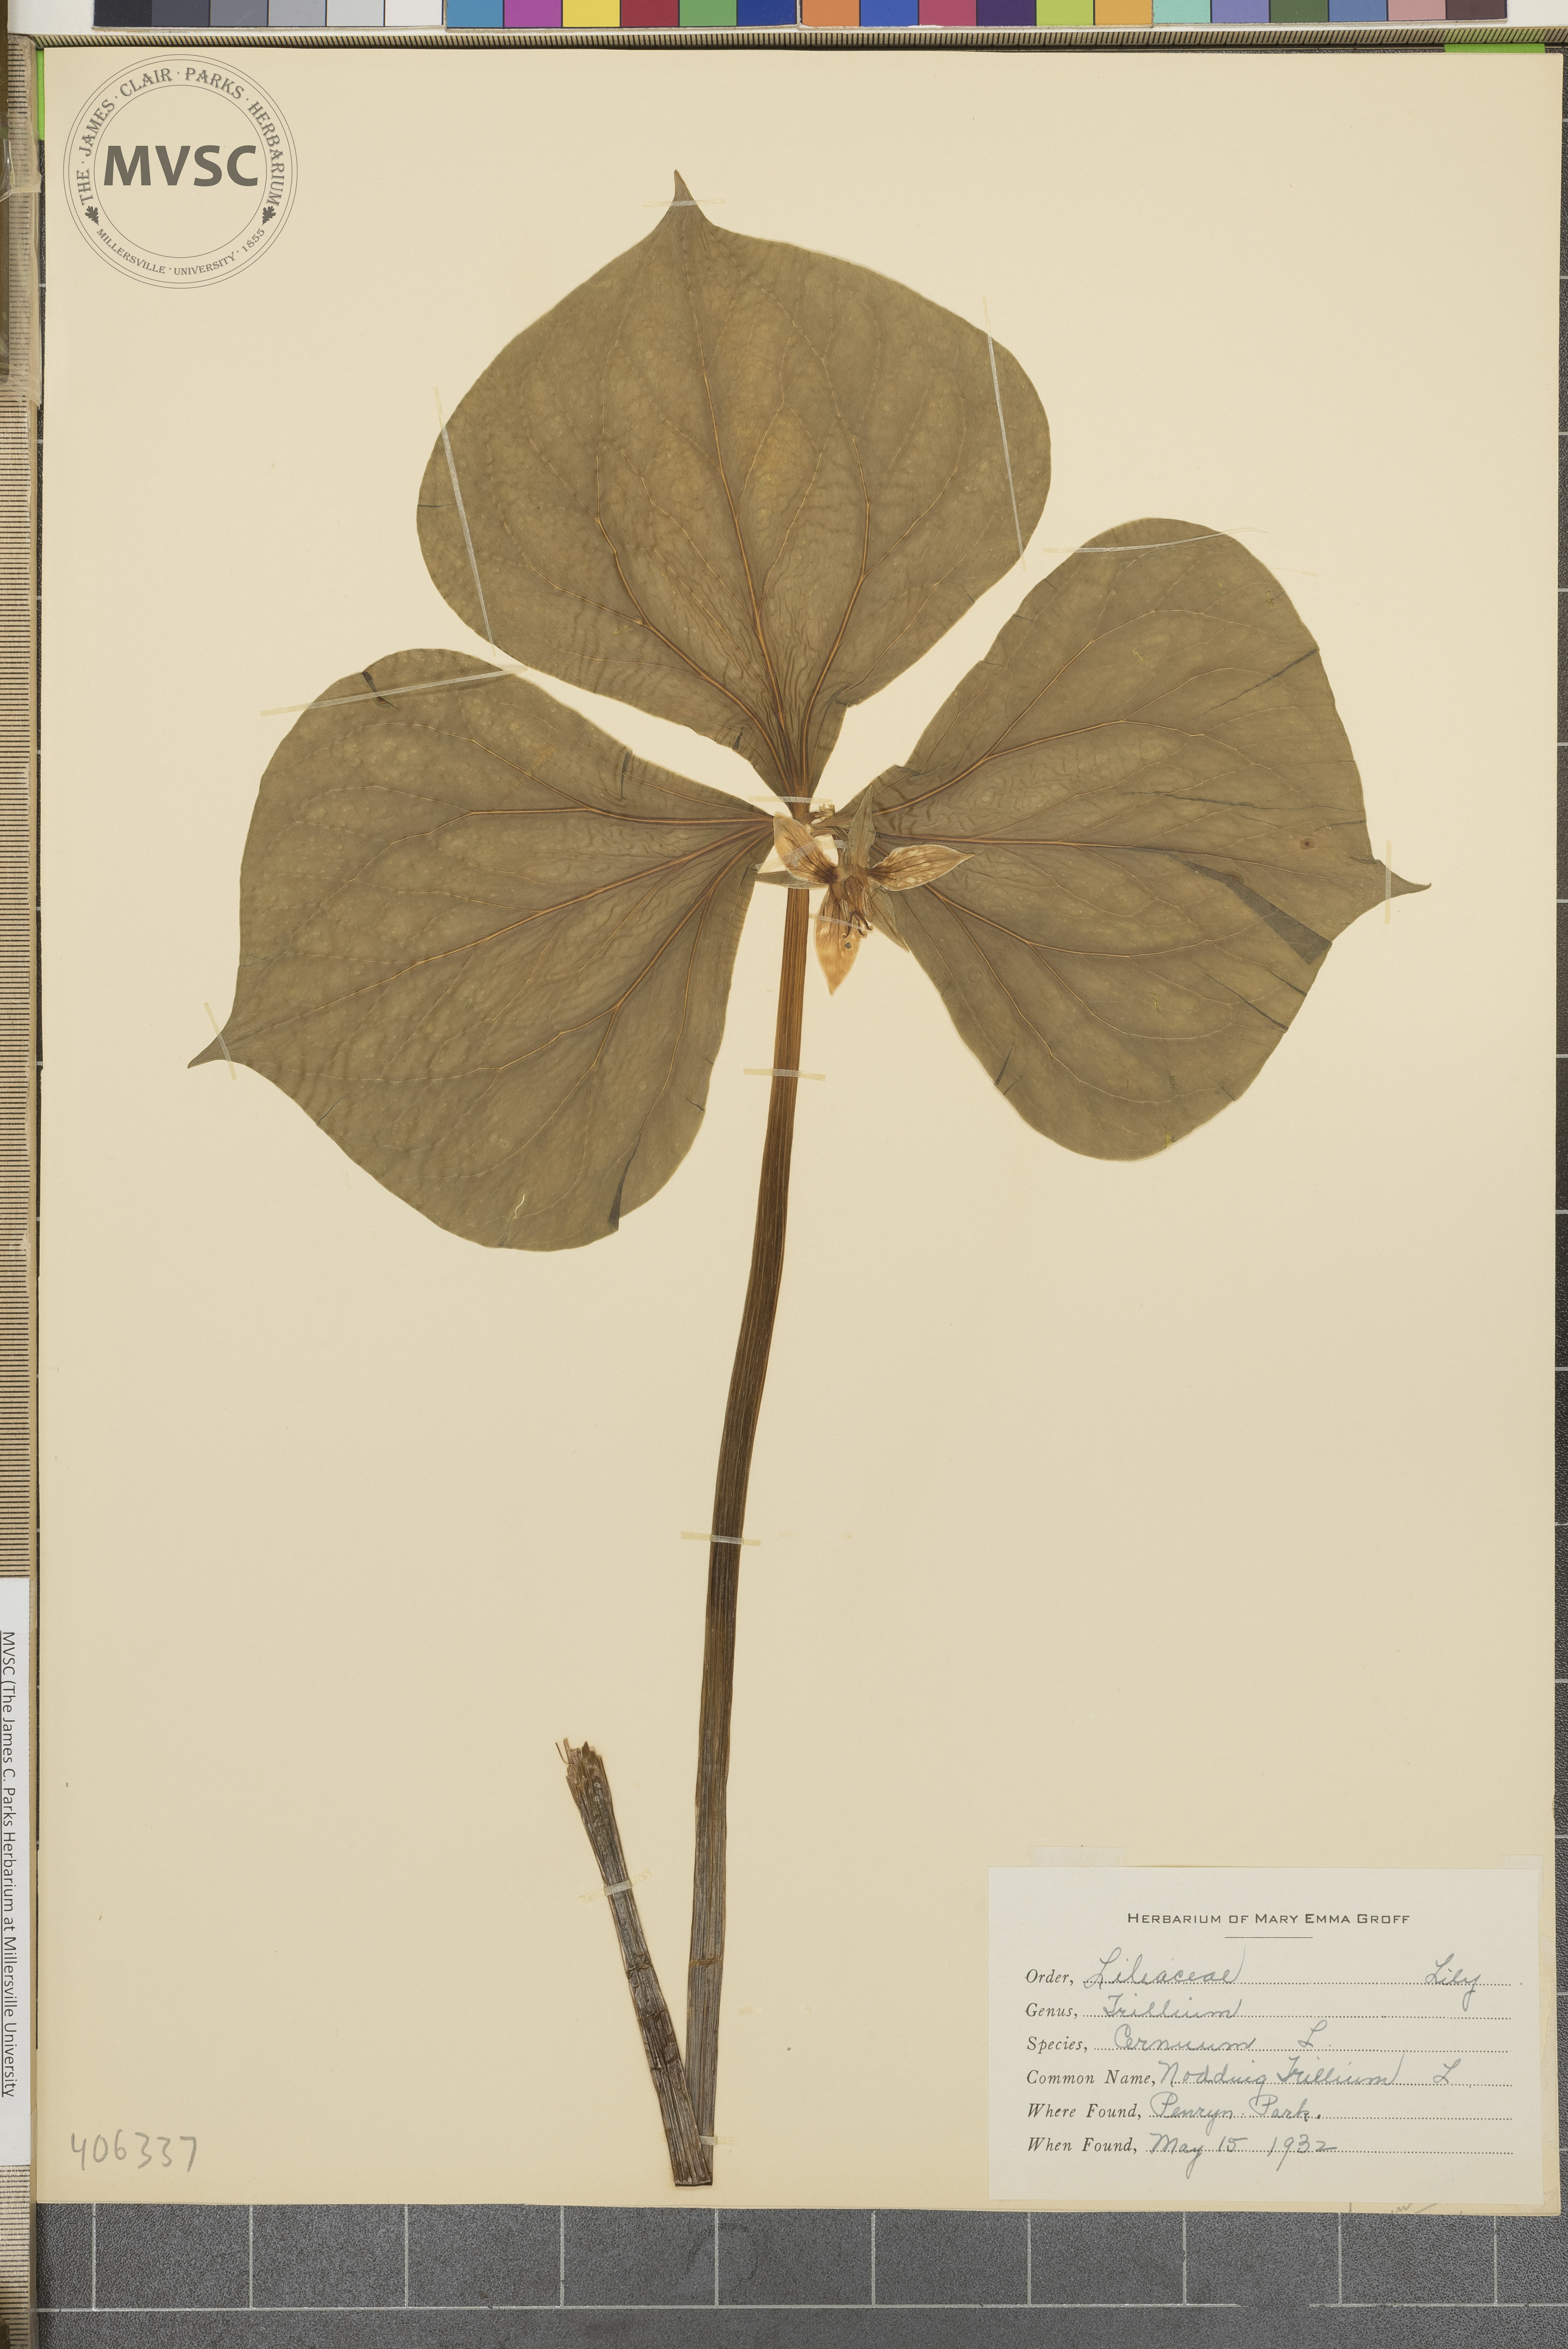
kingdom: Plantae
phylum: Tracheophyta
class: Liliopsida
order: Liliales
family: Melanthiaceae
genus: Trillium
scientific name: Trillium cernuum
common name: Nodding Trillium
